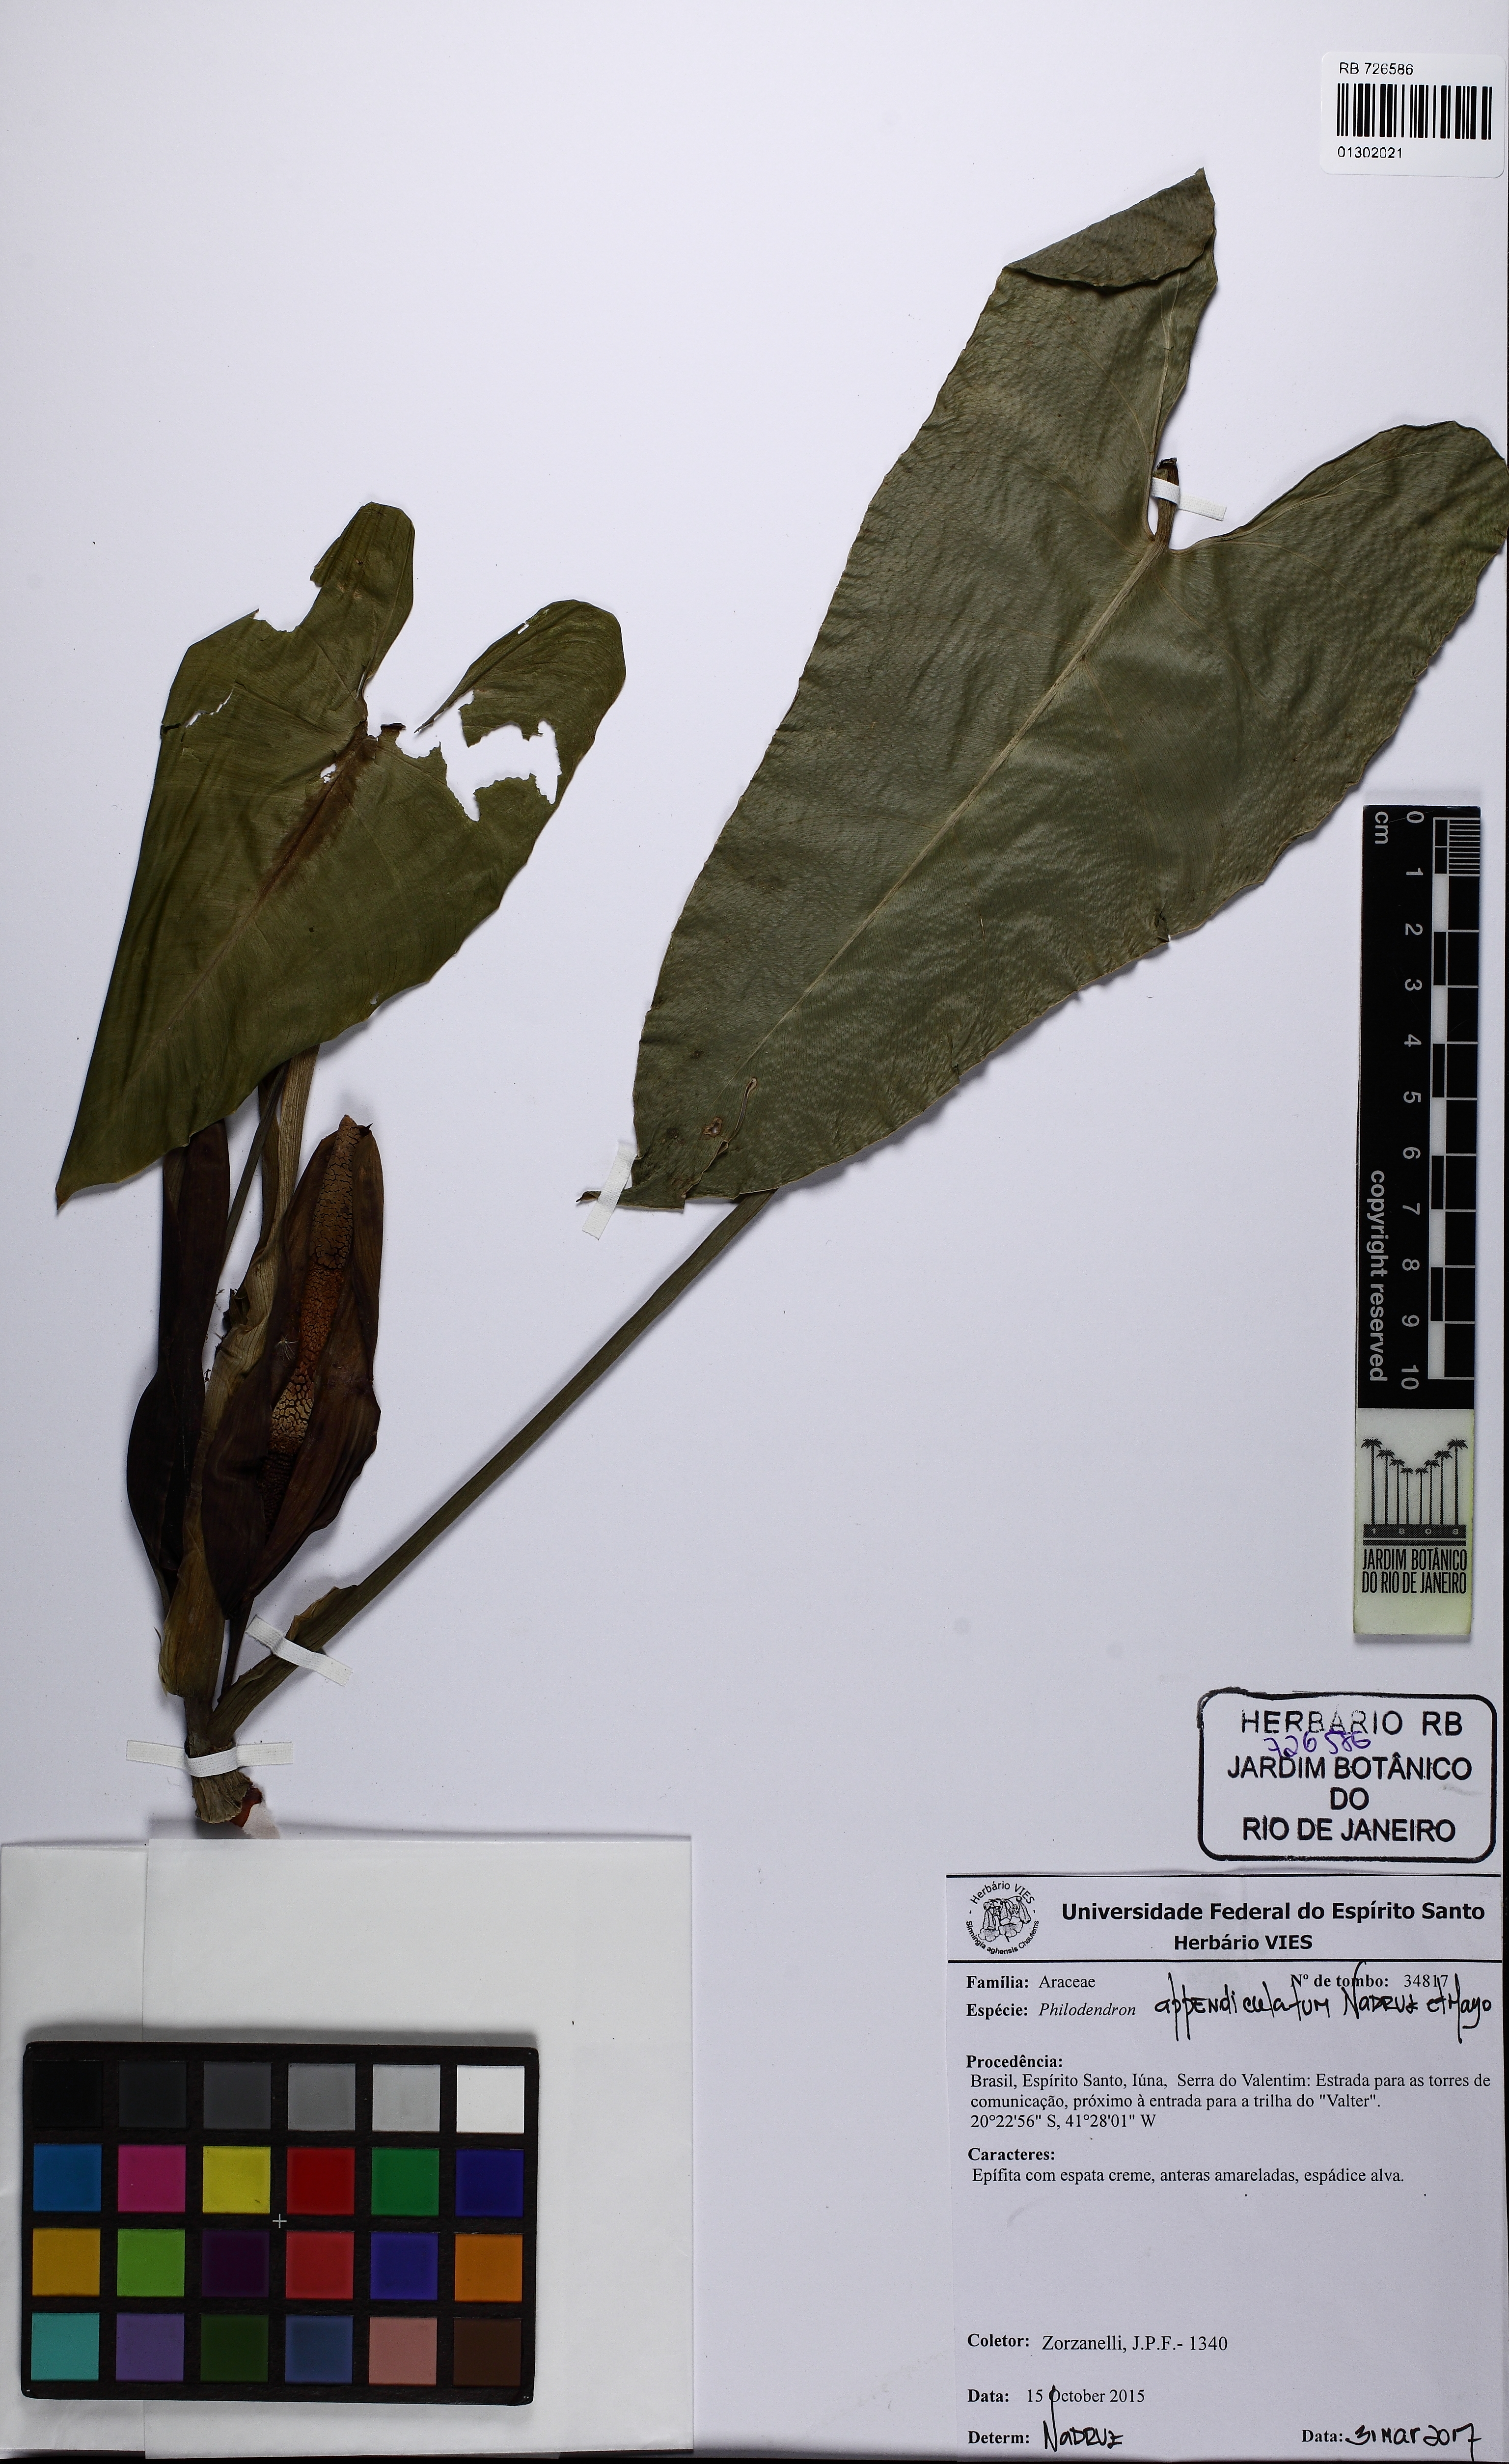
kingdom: Plantae
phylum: Tracheophyta
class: Liliopsida
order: Alismatales
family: Araceae
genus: Philodendron
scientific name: Philodendron appendiculatum
